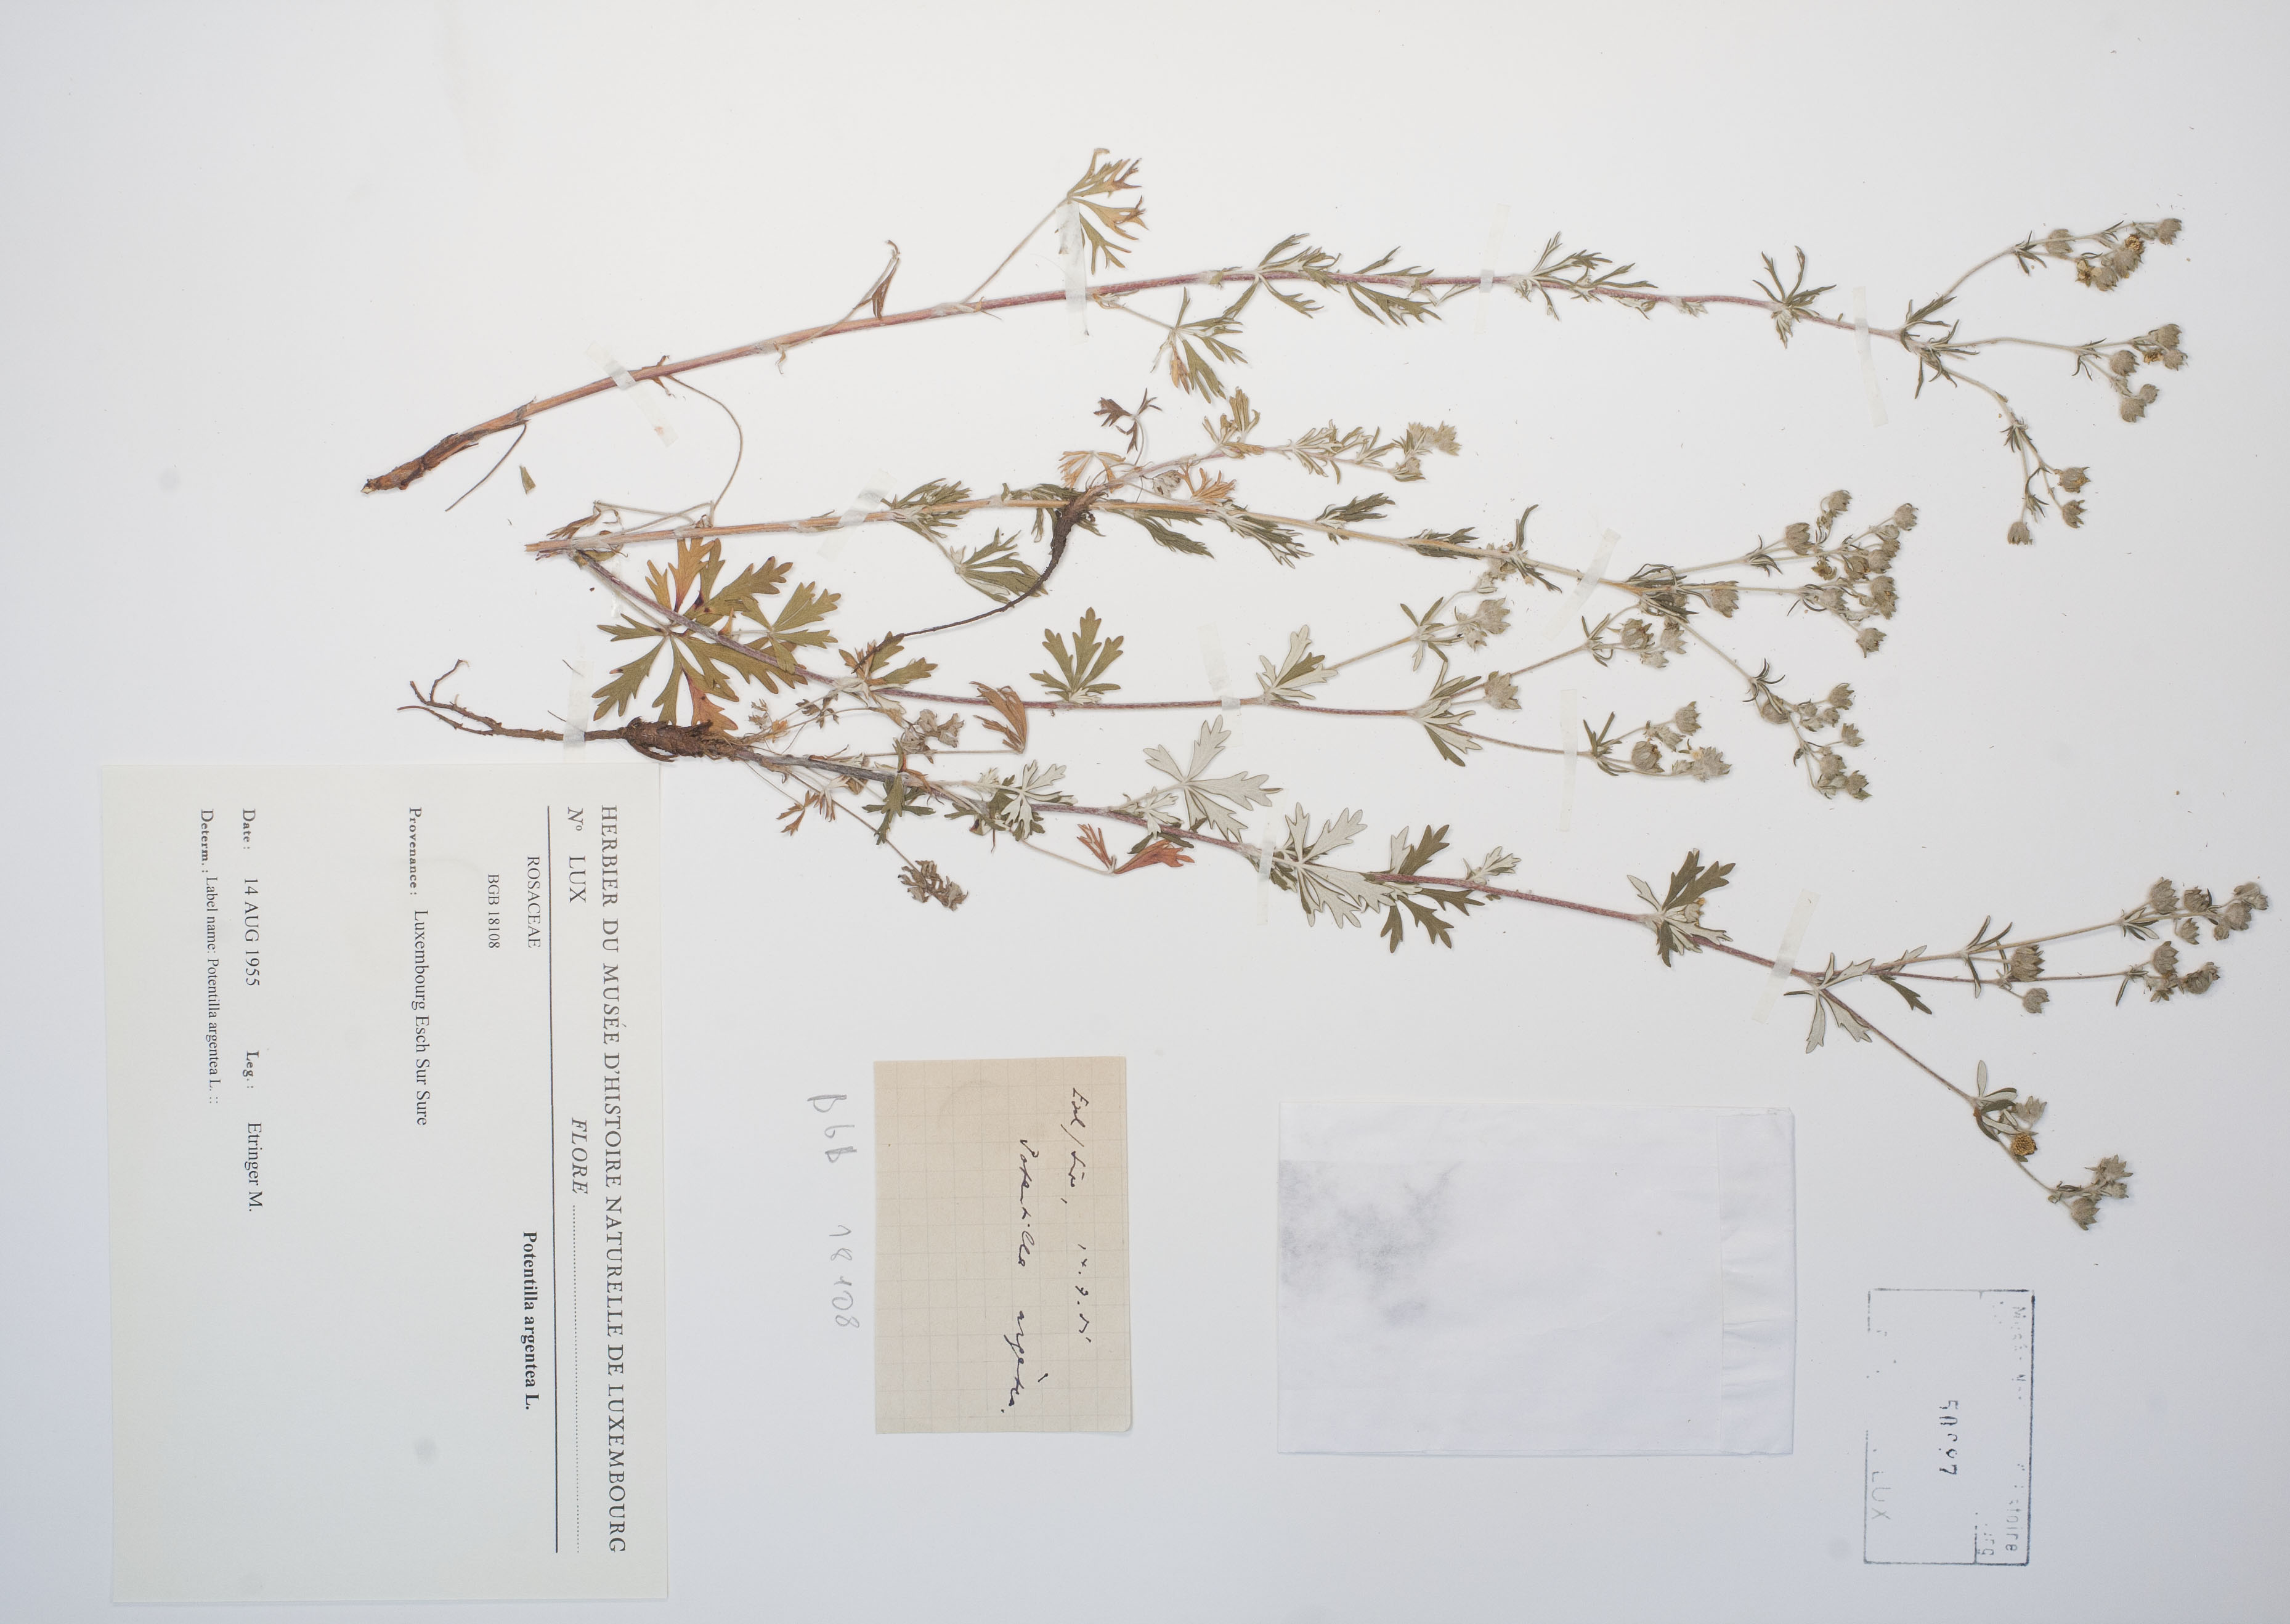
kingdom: Plantae
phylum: Tracheophyta
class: Magnoliopsida
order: Rosales
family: Rosaceae
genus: Potentilla
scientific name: Potentilla argentea
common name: Hoary cinquefoil
